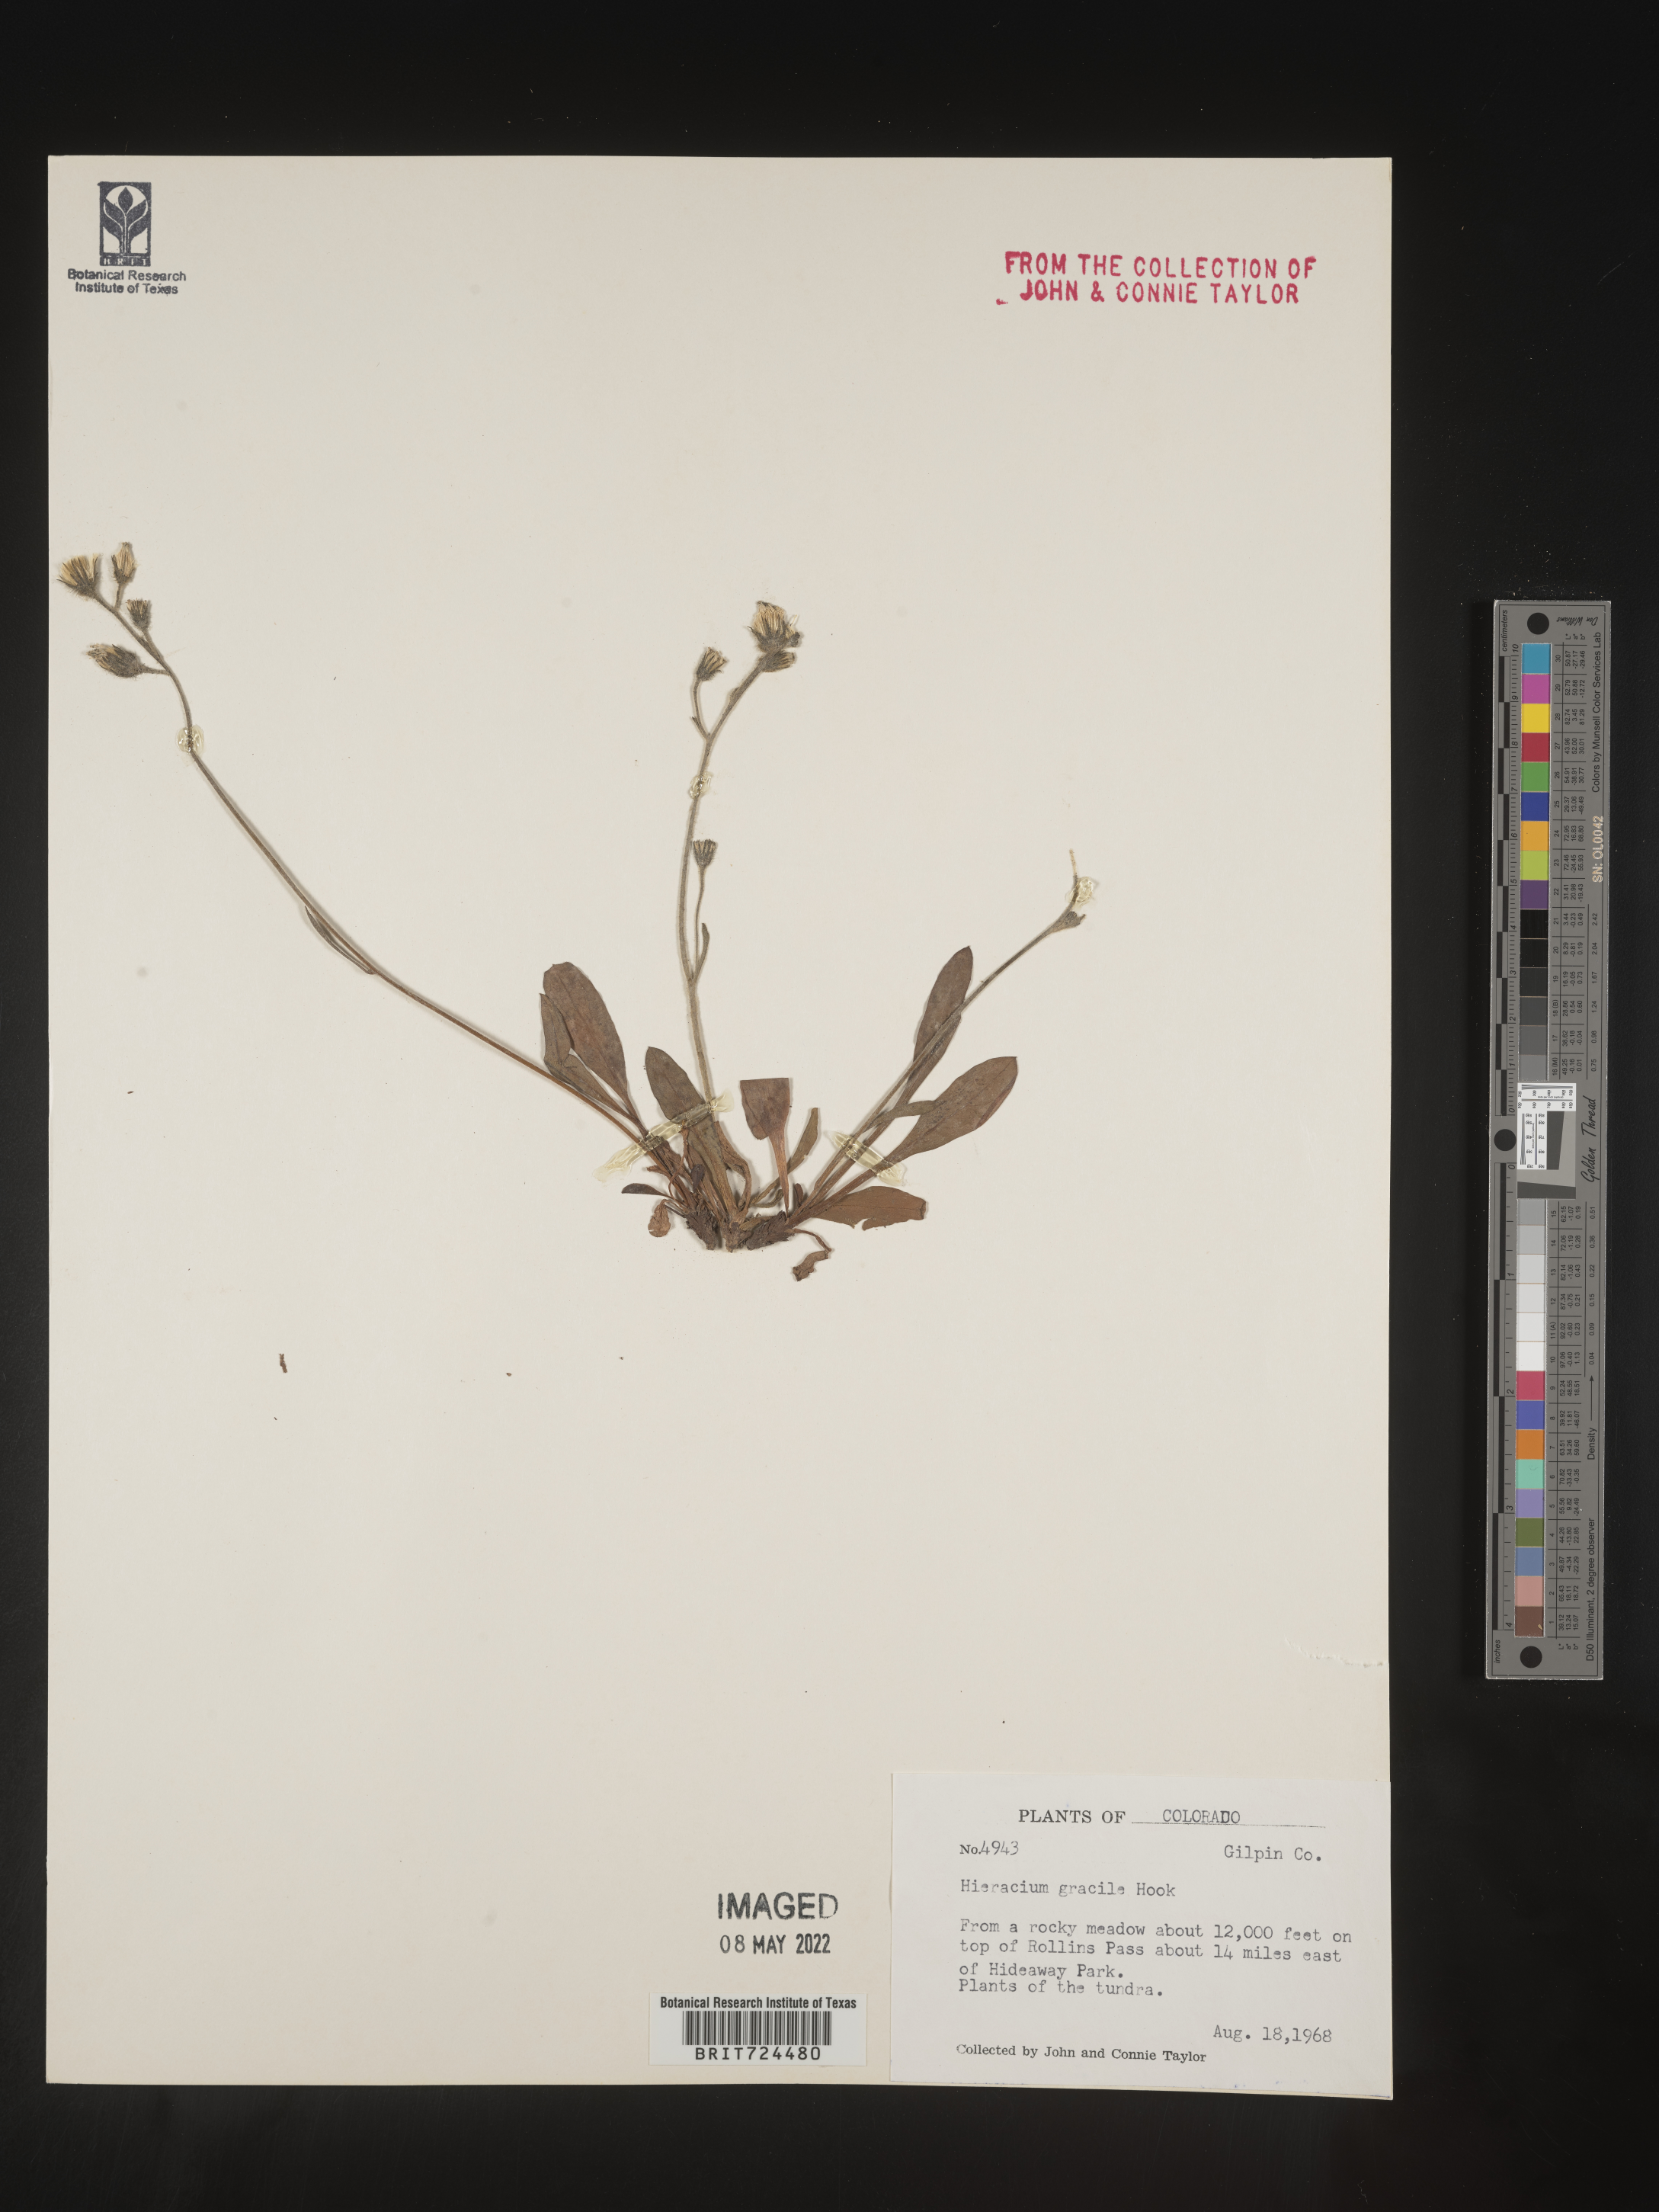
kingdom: Plantae
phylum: Tracheophyta
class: Magnoliopsida
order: Asterales
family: Asteraceae
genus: Hieracium
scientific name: Hieracium
